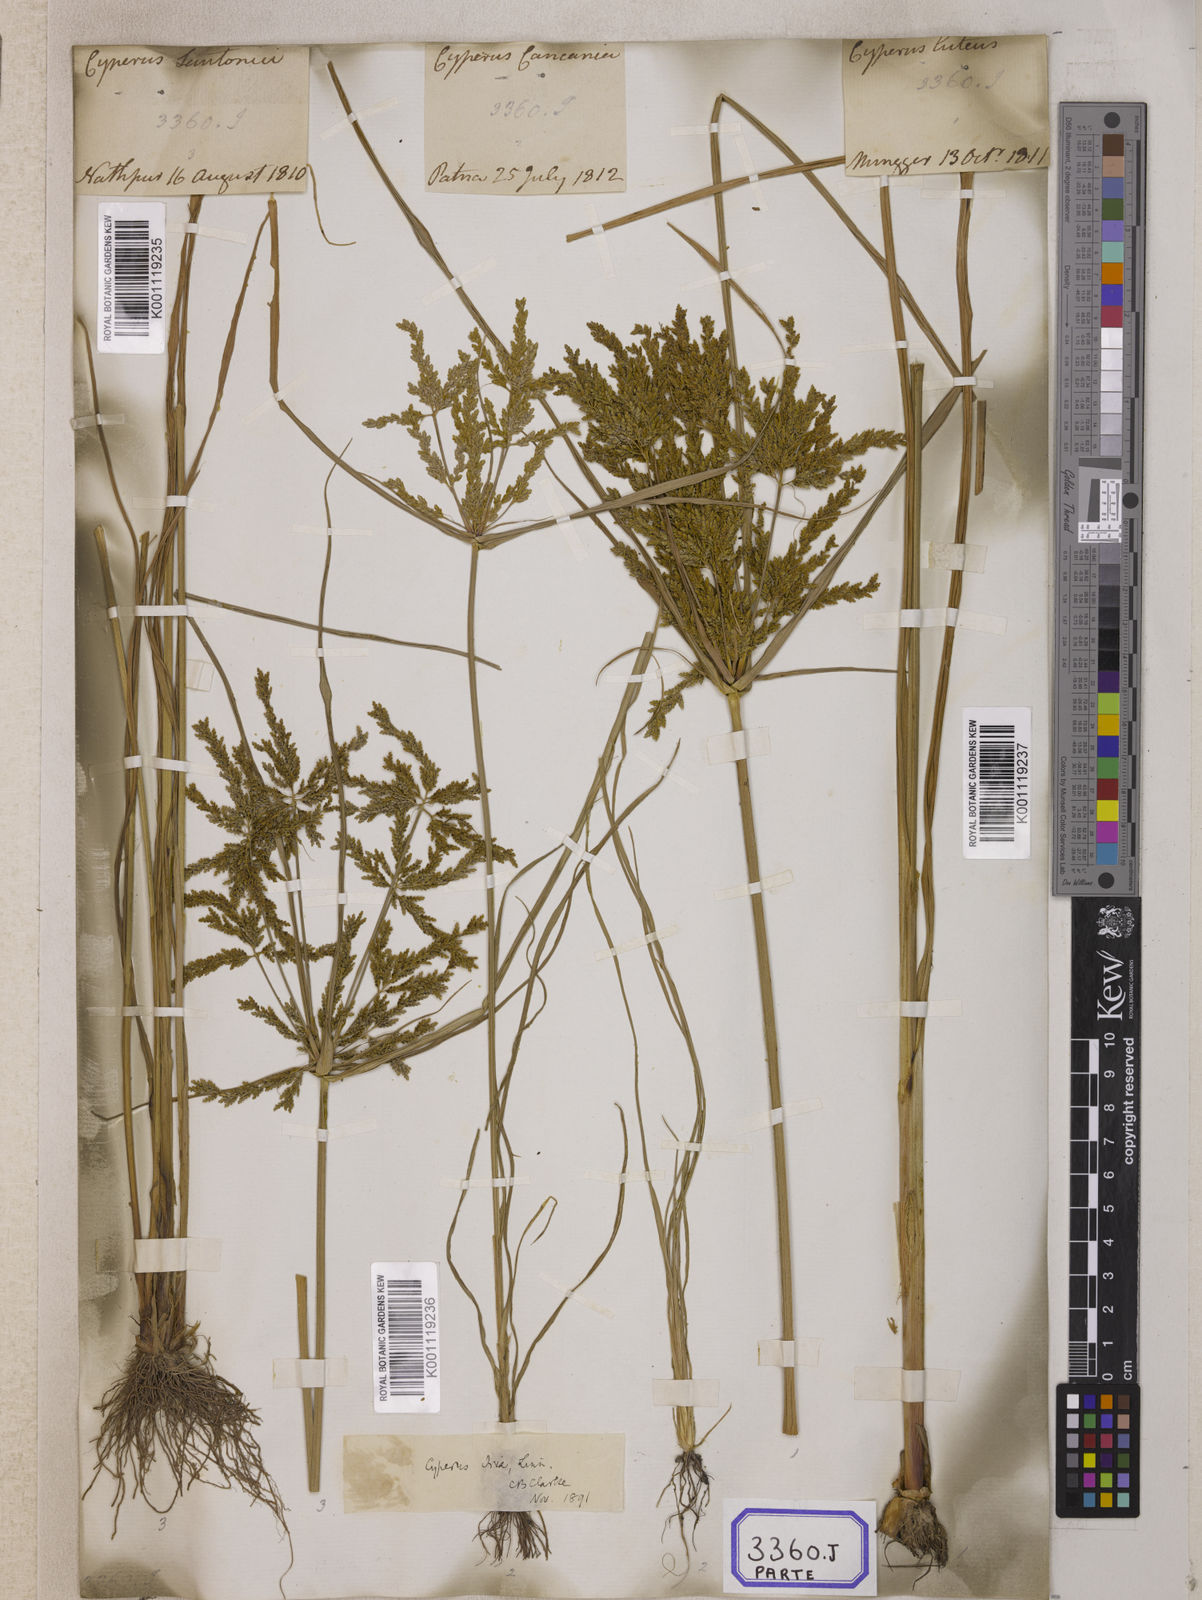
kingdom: Plantae
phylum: Tracheophyta
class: Liliopsida
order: Poales
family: Cyperaceae
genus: Cyperus
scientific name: Cyperus
